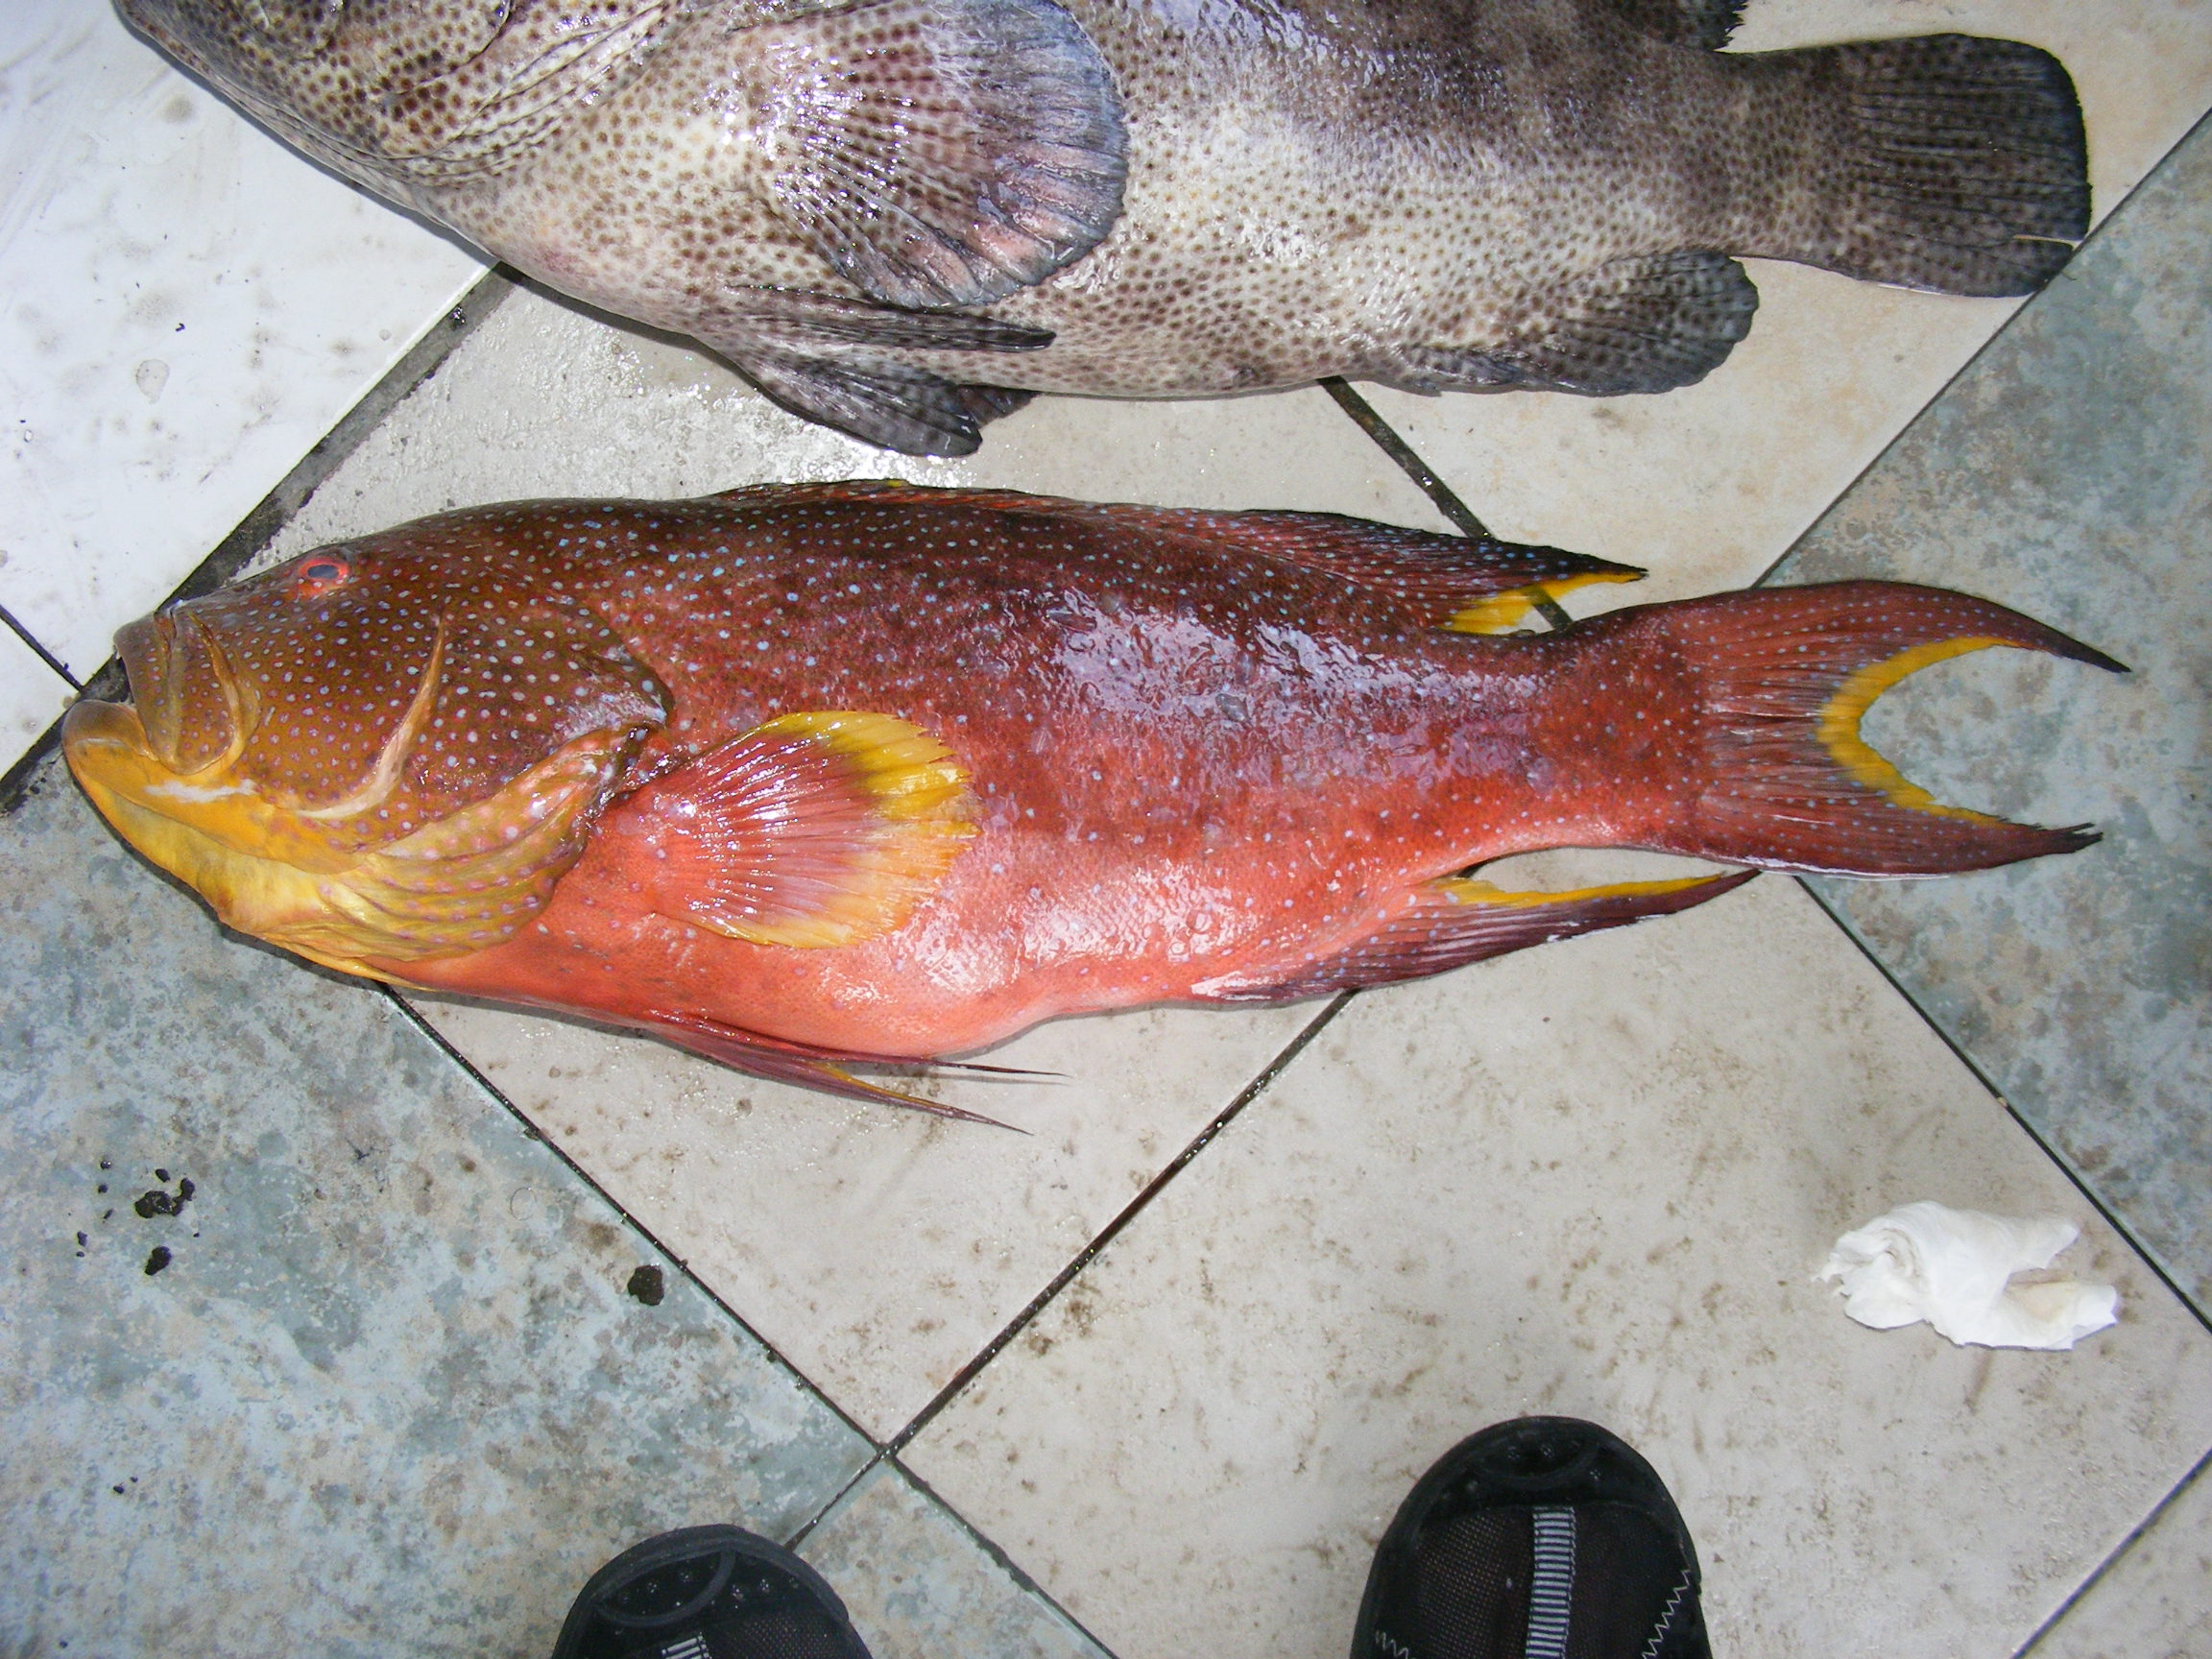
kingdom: Animalia
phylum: Chordata
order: Perciformes
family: Serranidae
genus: Variola
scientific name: Variola louti
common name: Yellow-edged lyretail
